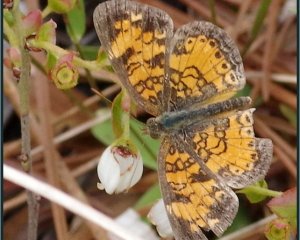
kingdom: Animalia
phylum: Arthropoda
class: Insecta
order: Lepidoptera
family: Nymphalidae
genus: Phyciodes
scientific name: Phyciodes tharos
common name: Pearl Crescent
